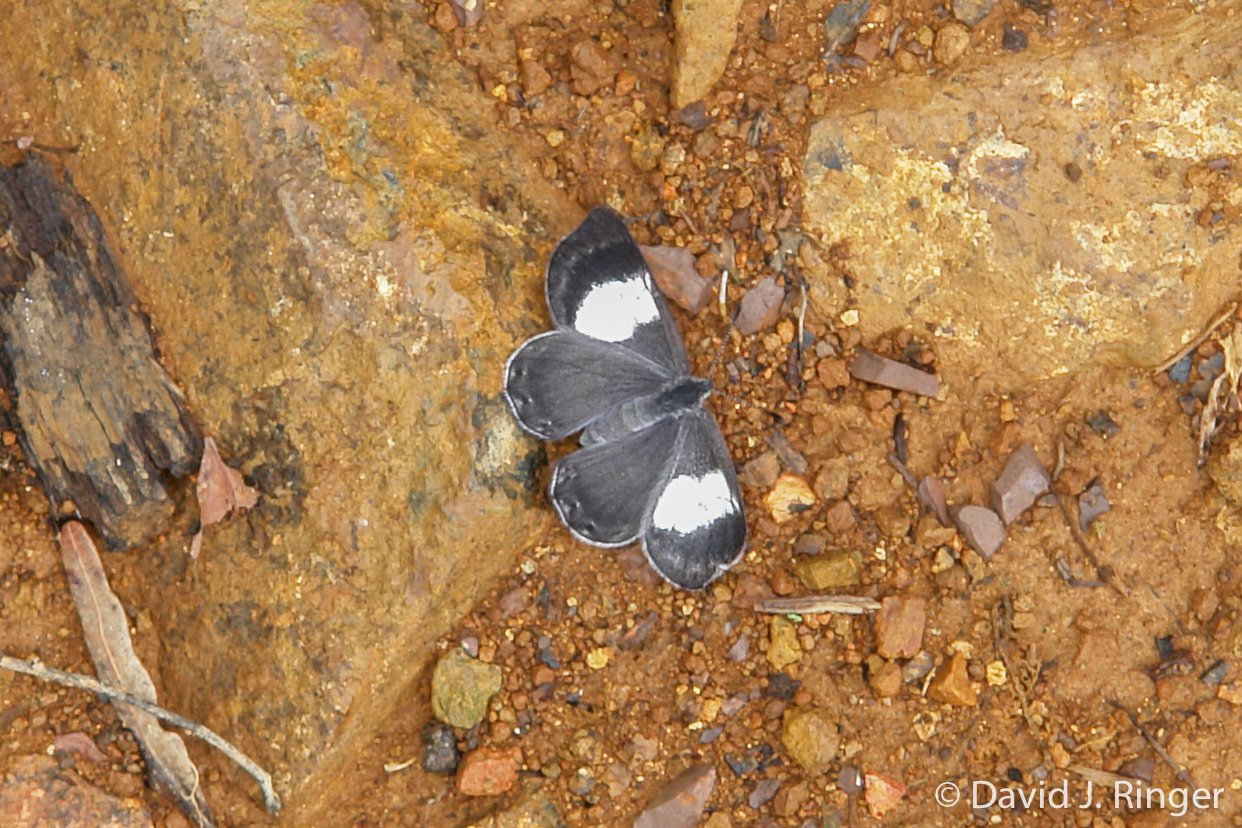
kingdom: Animalia
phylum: Arthropoda
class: Insecta
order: Lepidoptera
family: Riodinidae
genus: Corrachia
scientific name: Corrachia leucoplaga
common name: Costa Rican Metalmark
